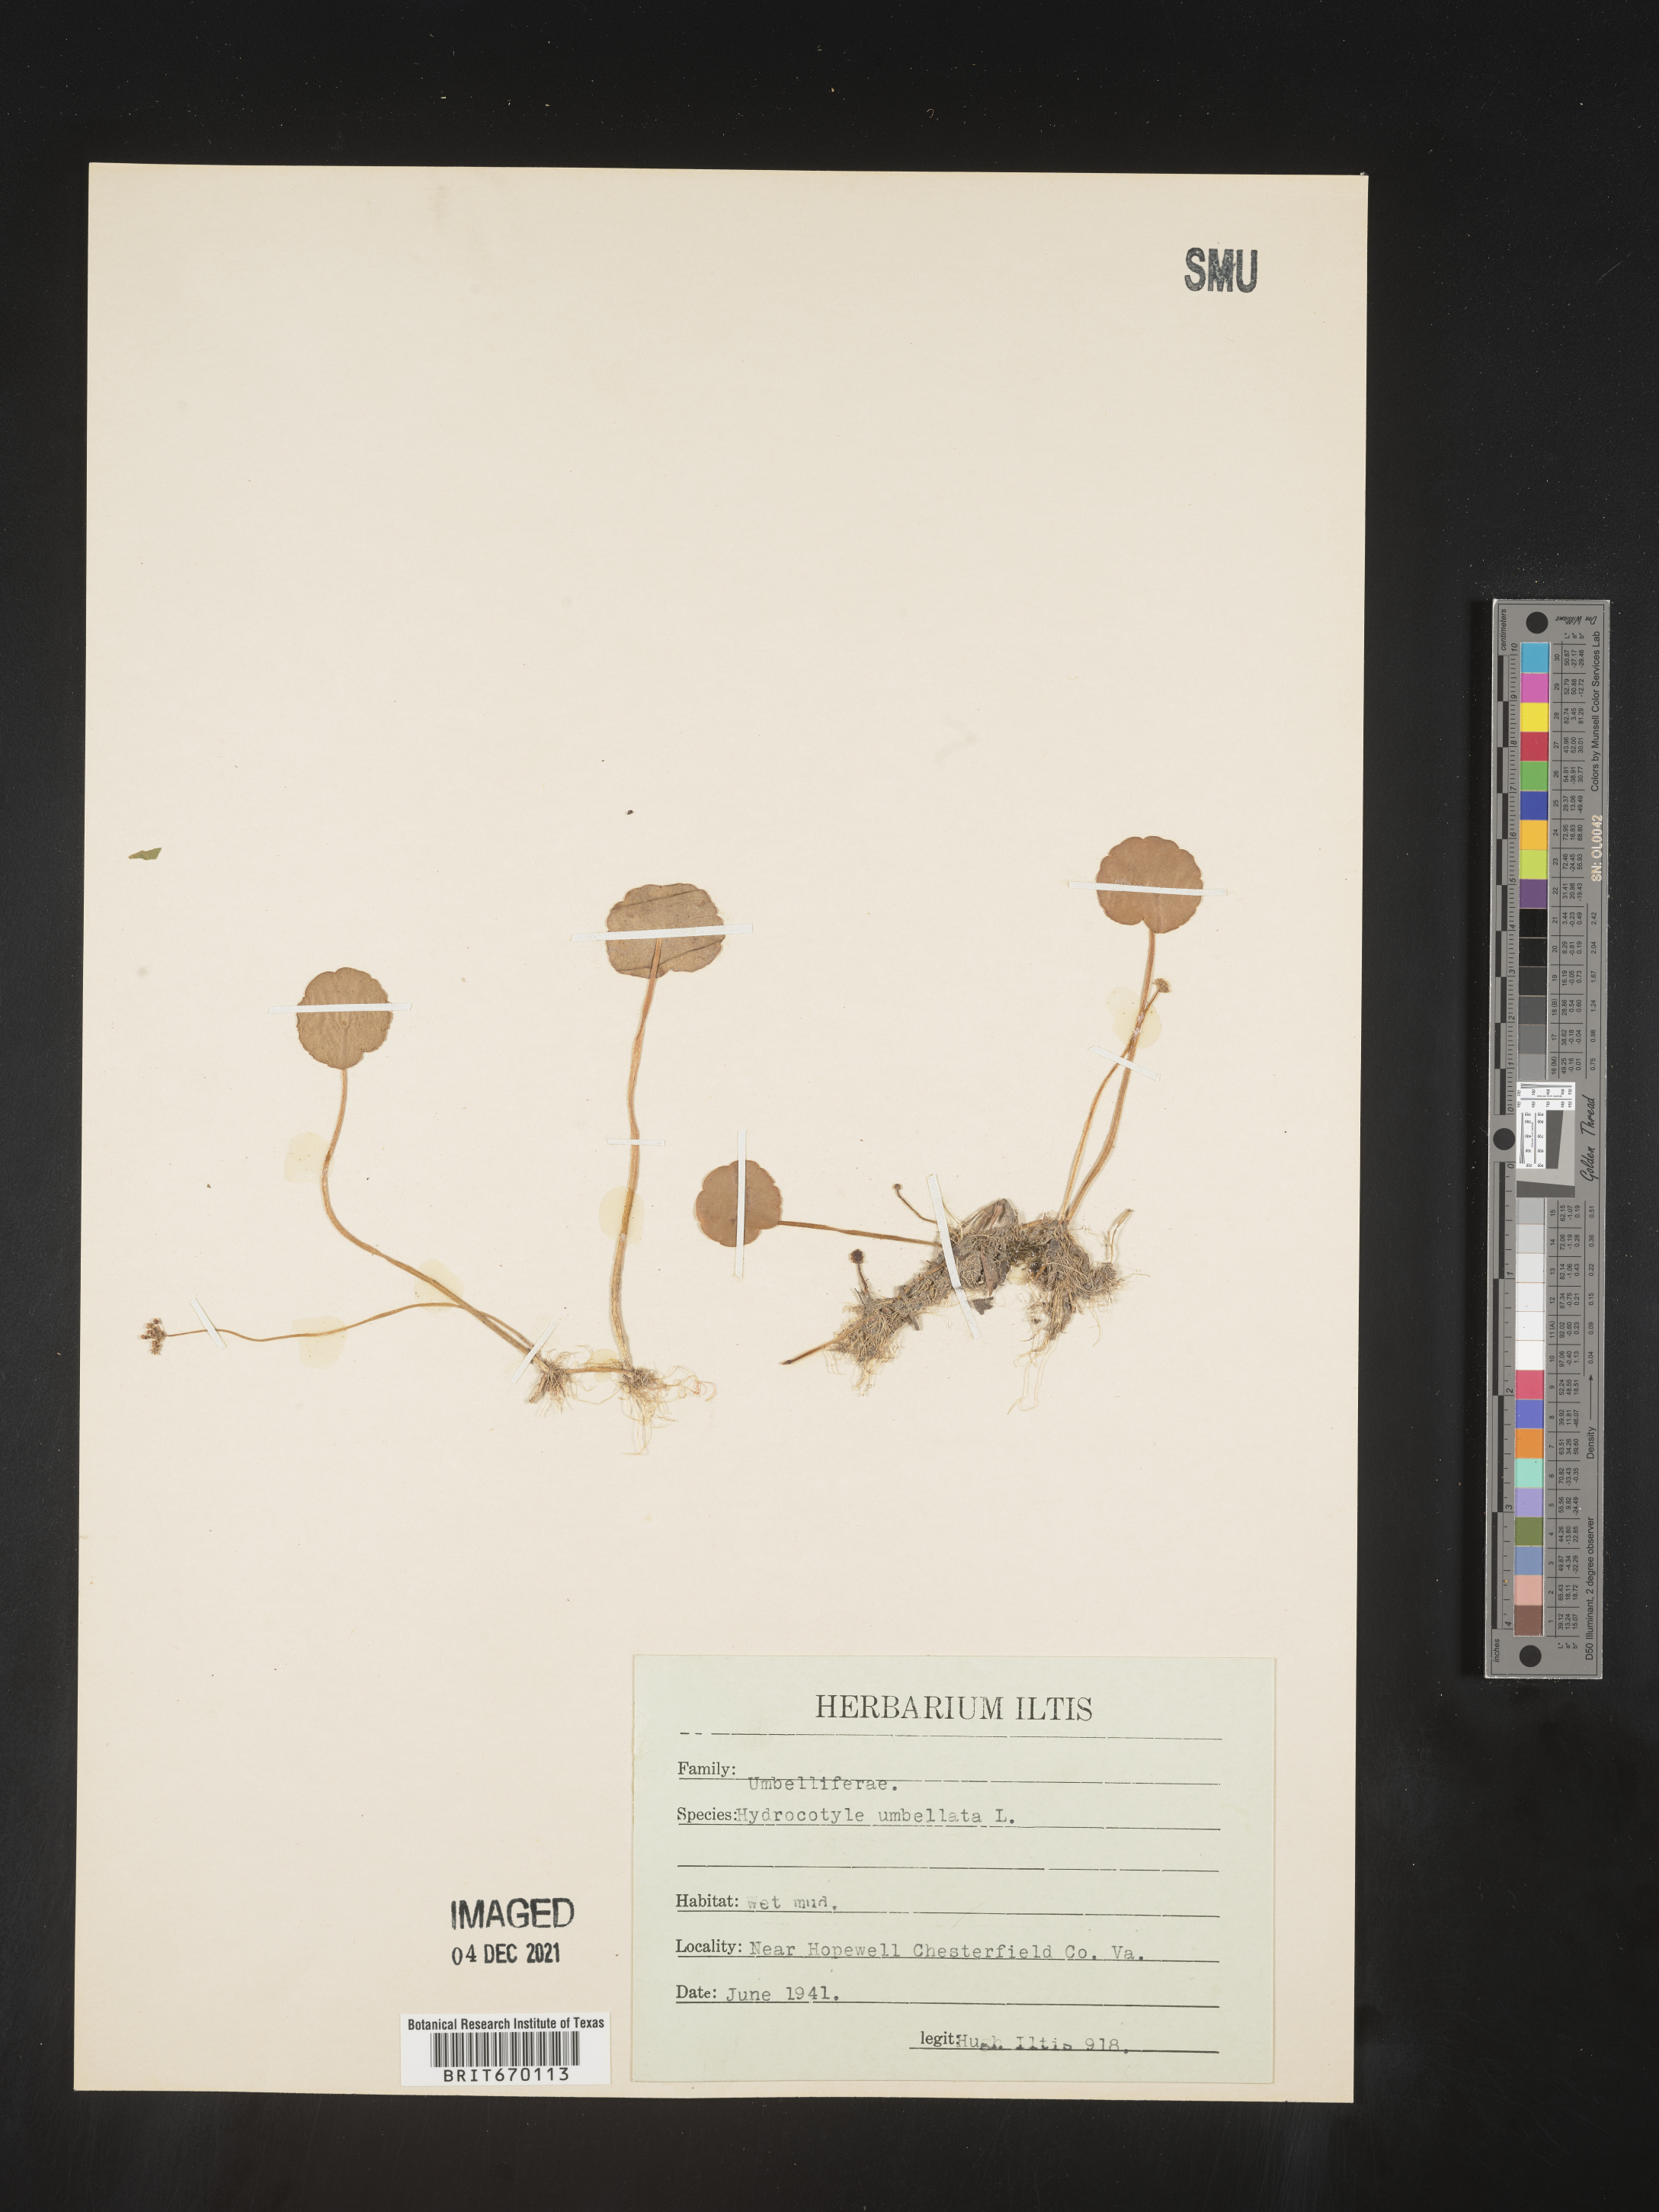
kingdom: Plantae
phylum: Tracheophyta
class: Magnoliopsida
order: Apiales
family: Araliaceae
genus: Hydrocotyle
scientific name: Hydrocotyle umbellata
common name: Water pennywort
